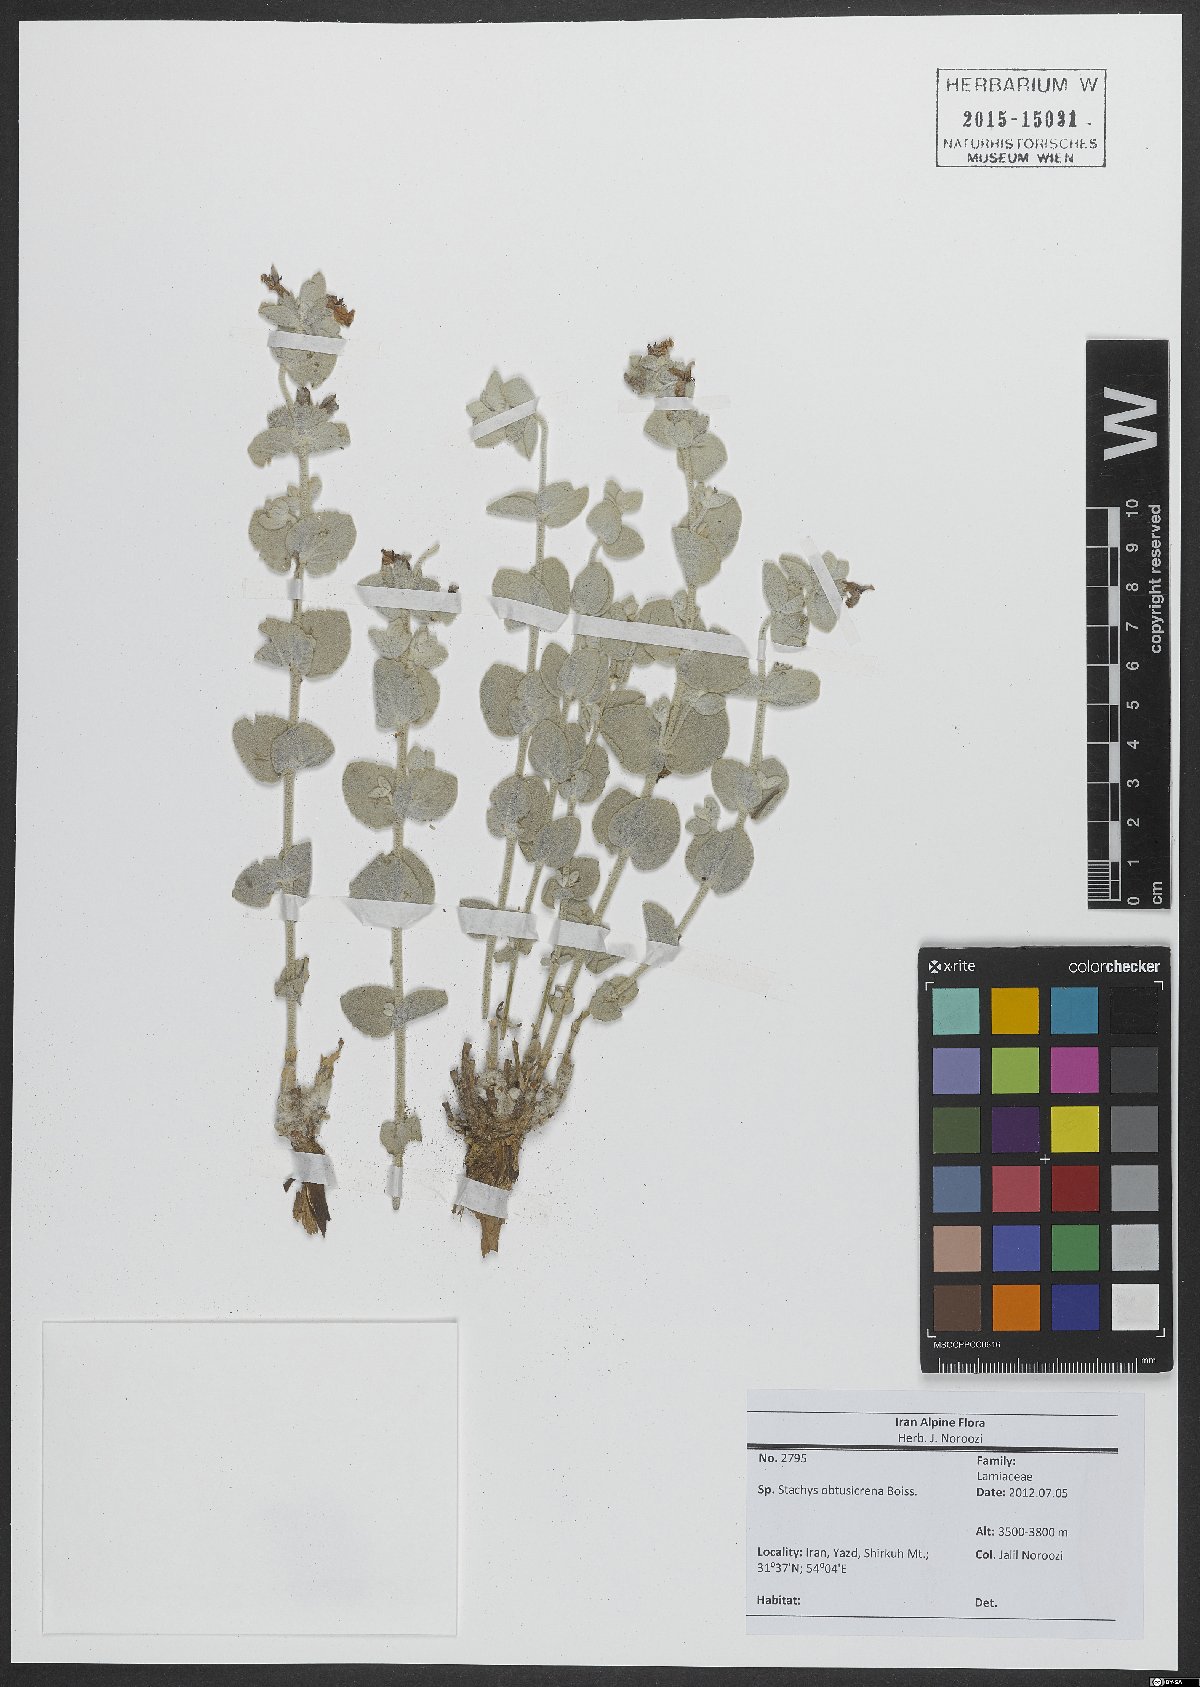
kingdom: Plantae
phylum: Tracheophyta
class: Magnoliopsida
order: Lamiales
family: Lamiaceae
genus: Stachys
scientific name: Stachys obtusicrena
